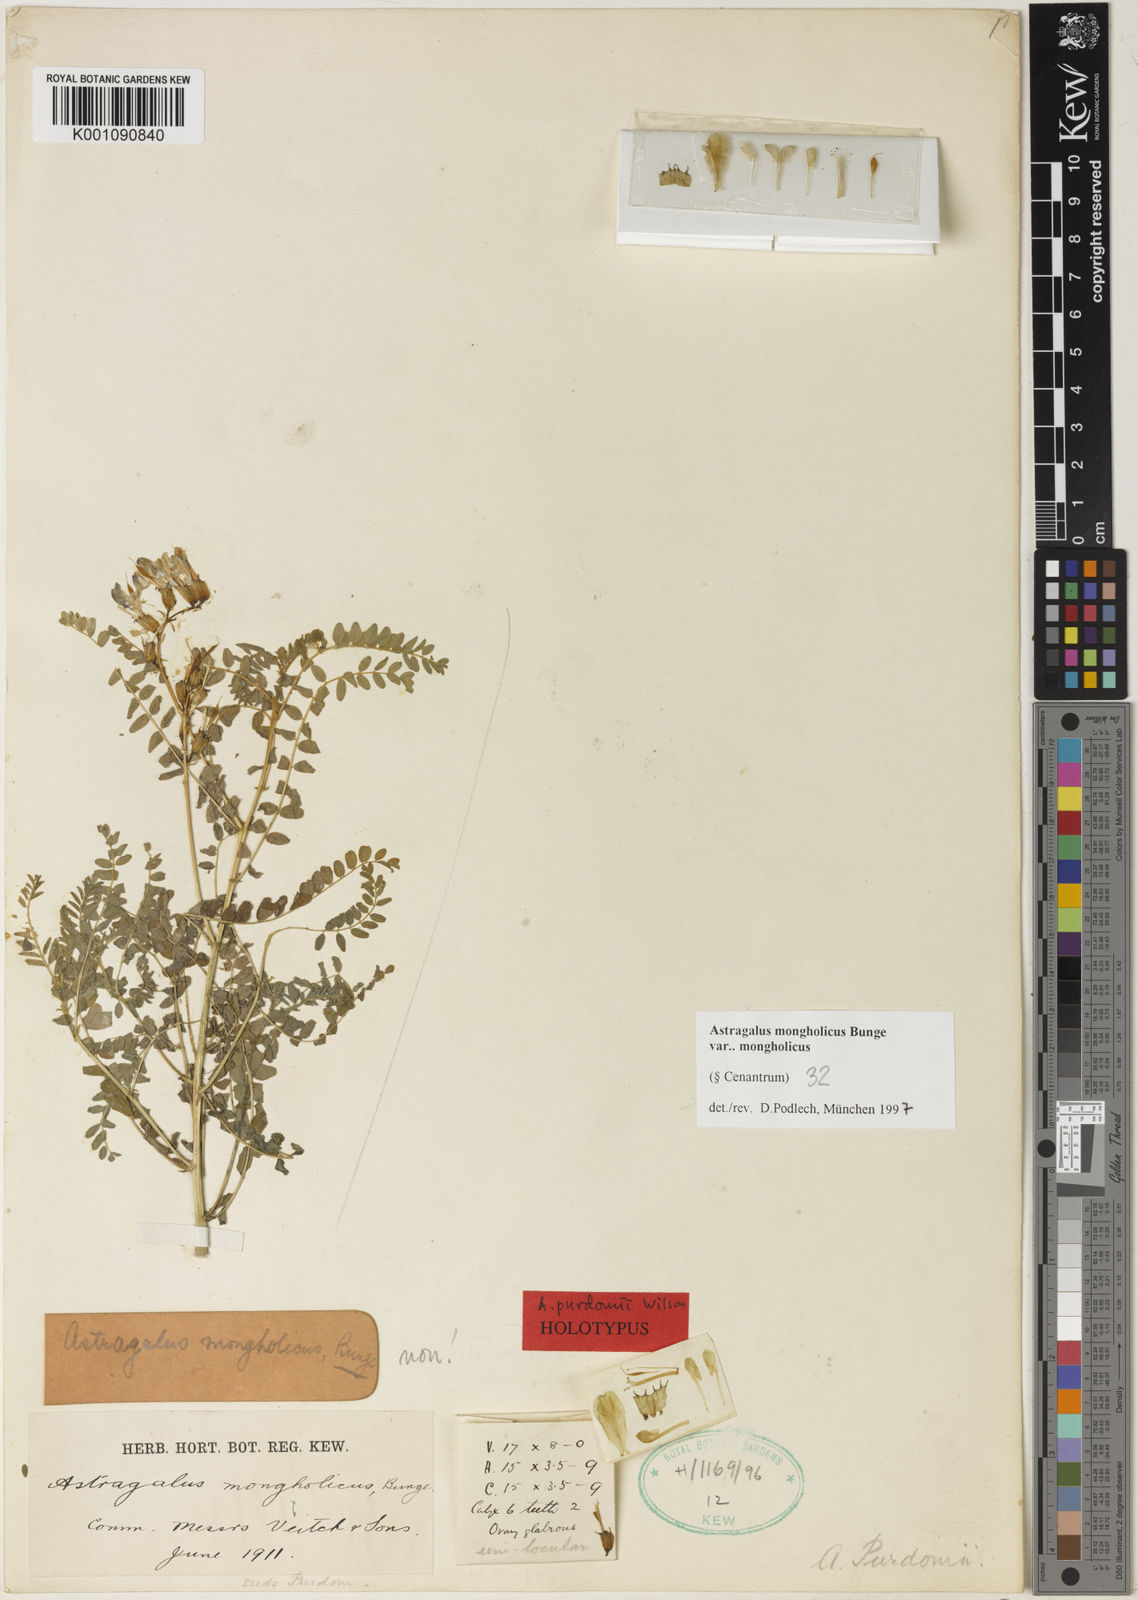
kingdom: Plantae
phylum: Tracheophyta
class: Magnoliopsida
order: Fabales
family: Fabaceae
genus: Astragalus
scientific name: Astragalus
